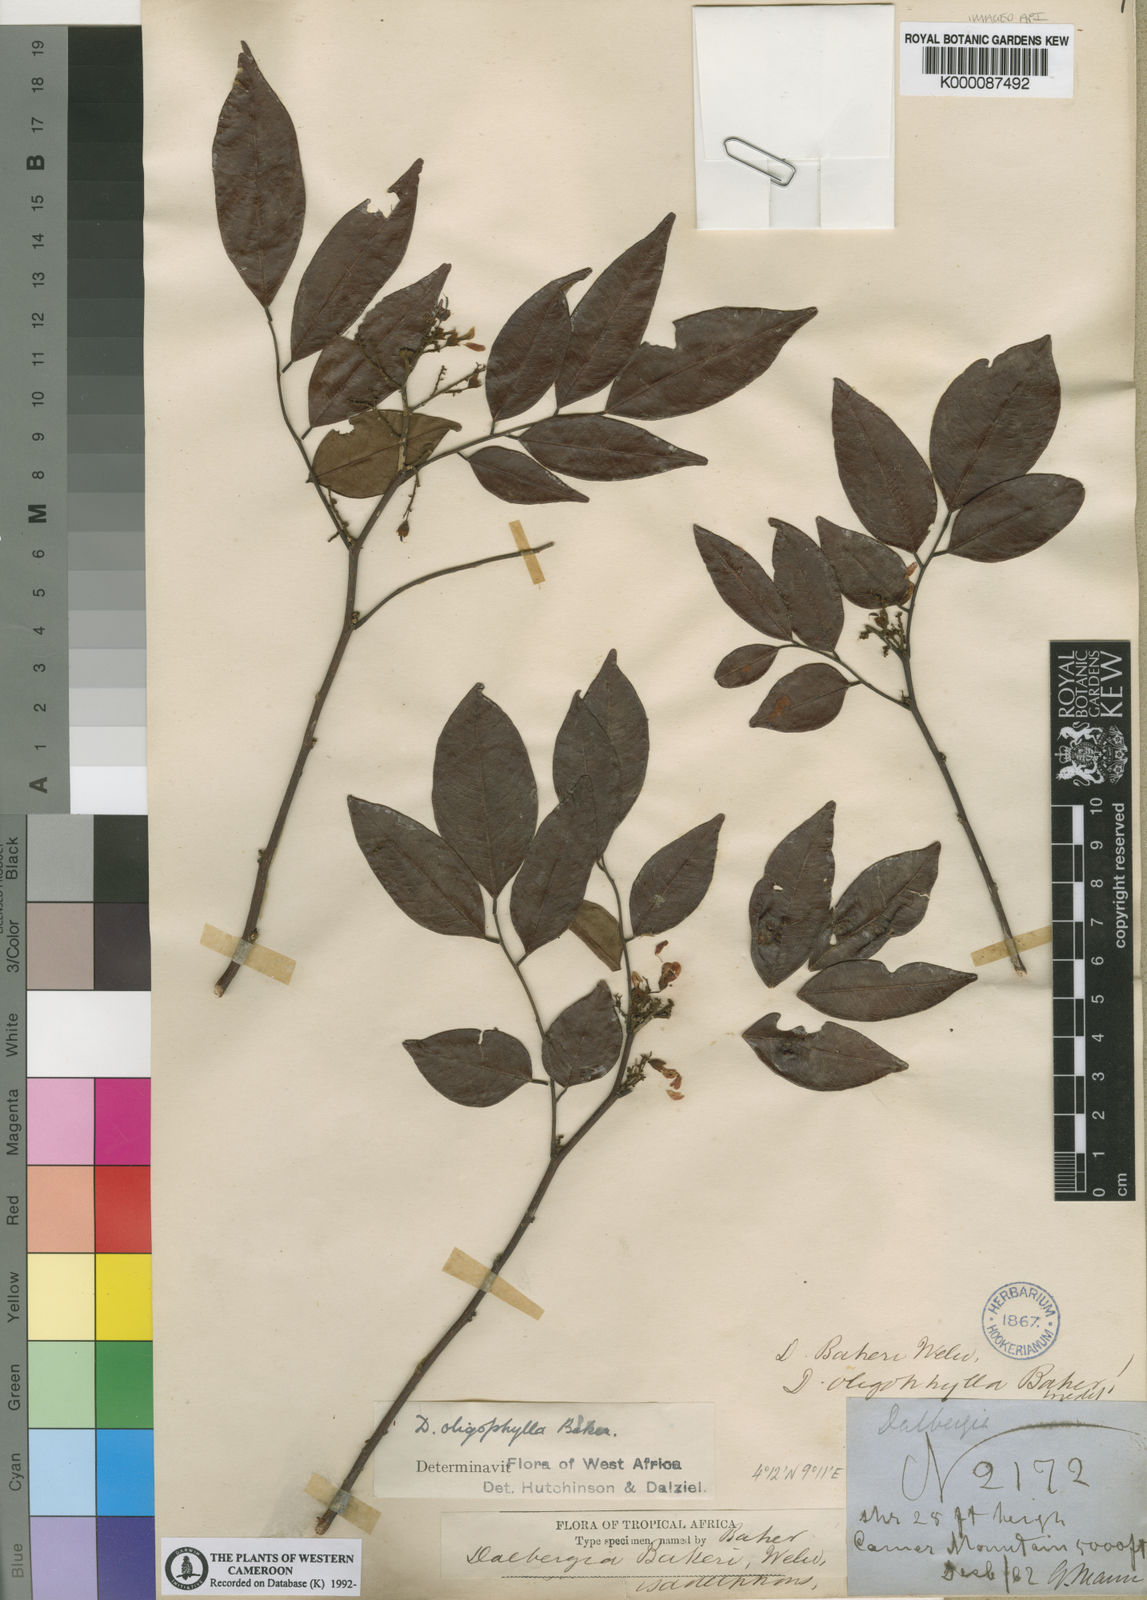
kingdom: Plantae
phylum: Tracheophyta
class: Magnoliopsida
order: Fabales
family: Fabaceae
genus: Dalbergia
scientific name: Dalbergia oligophylla
